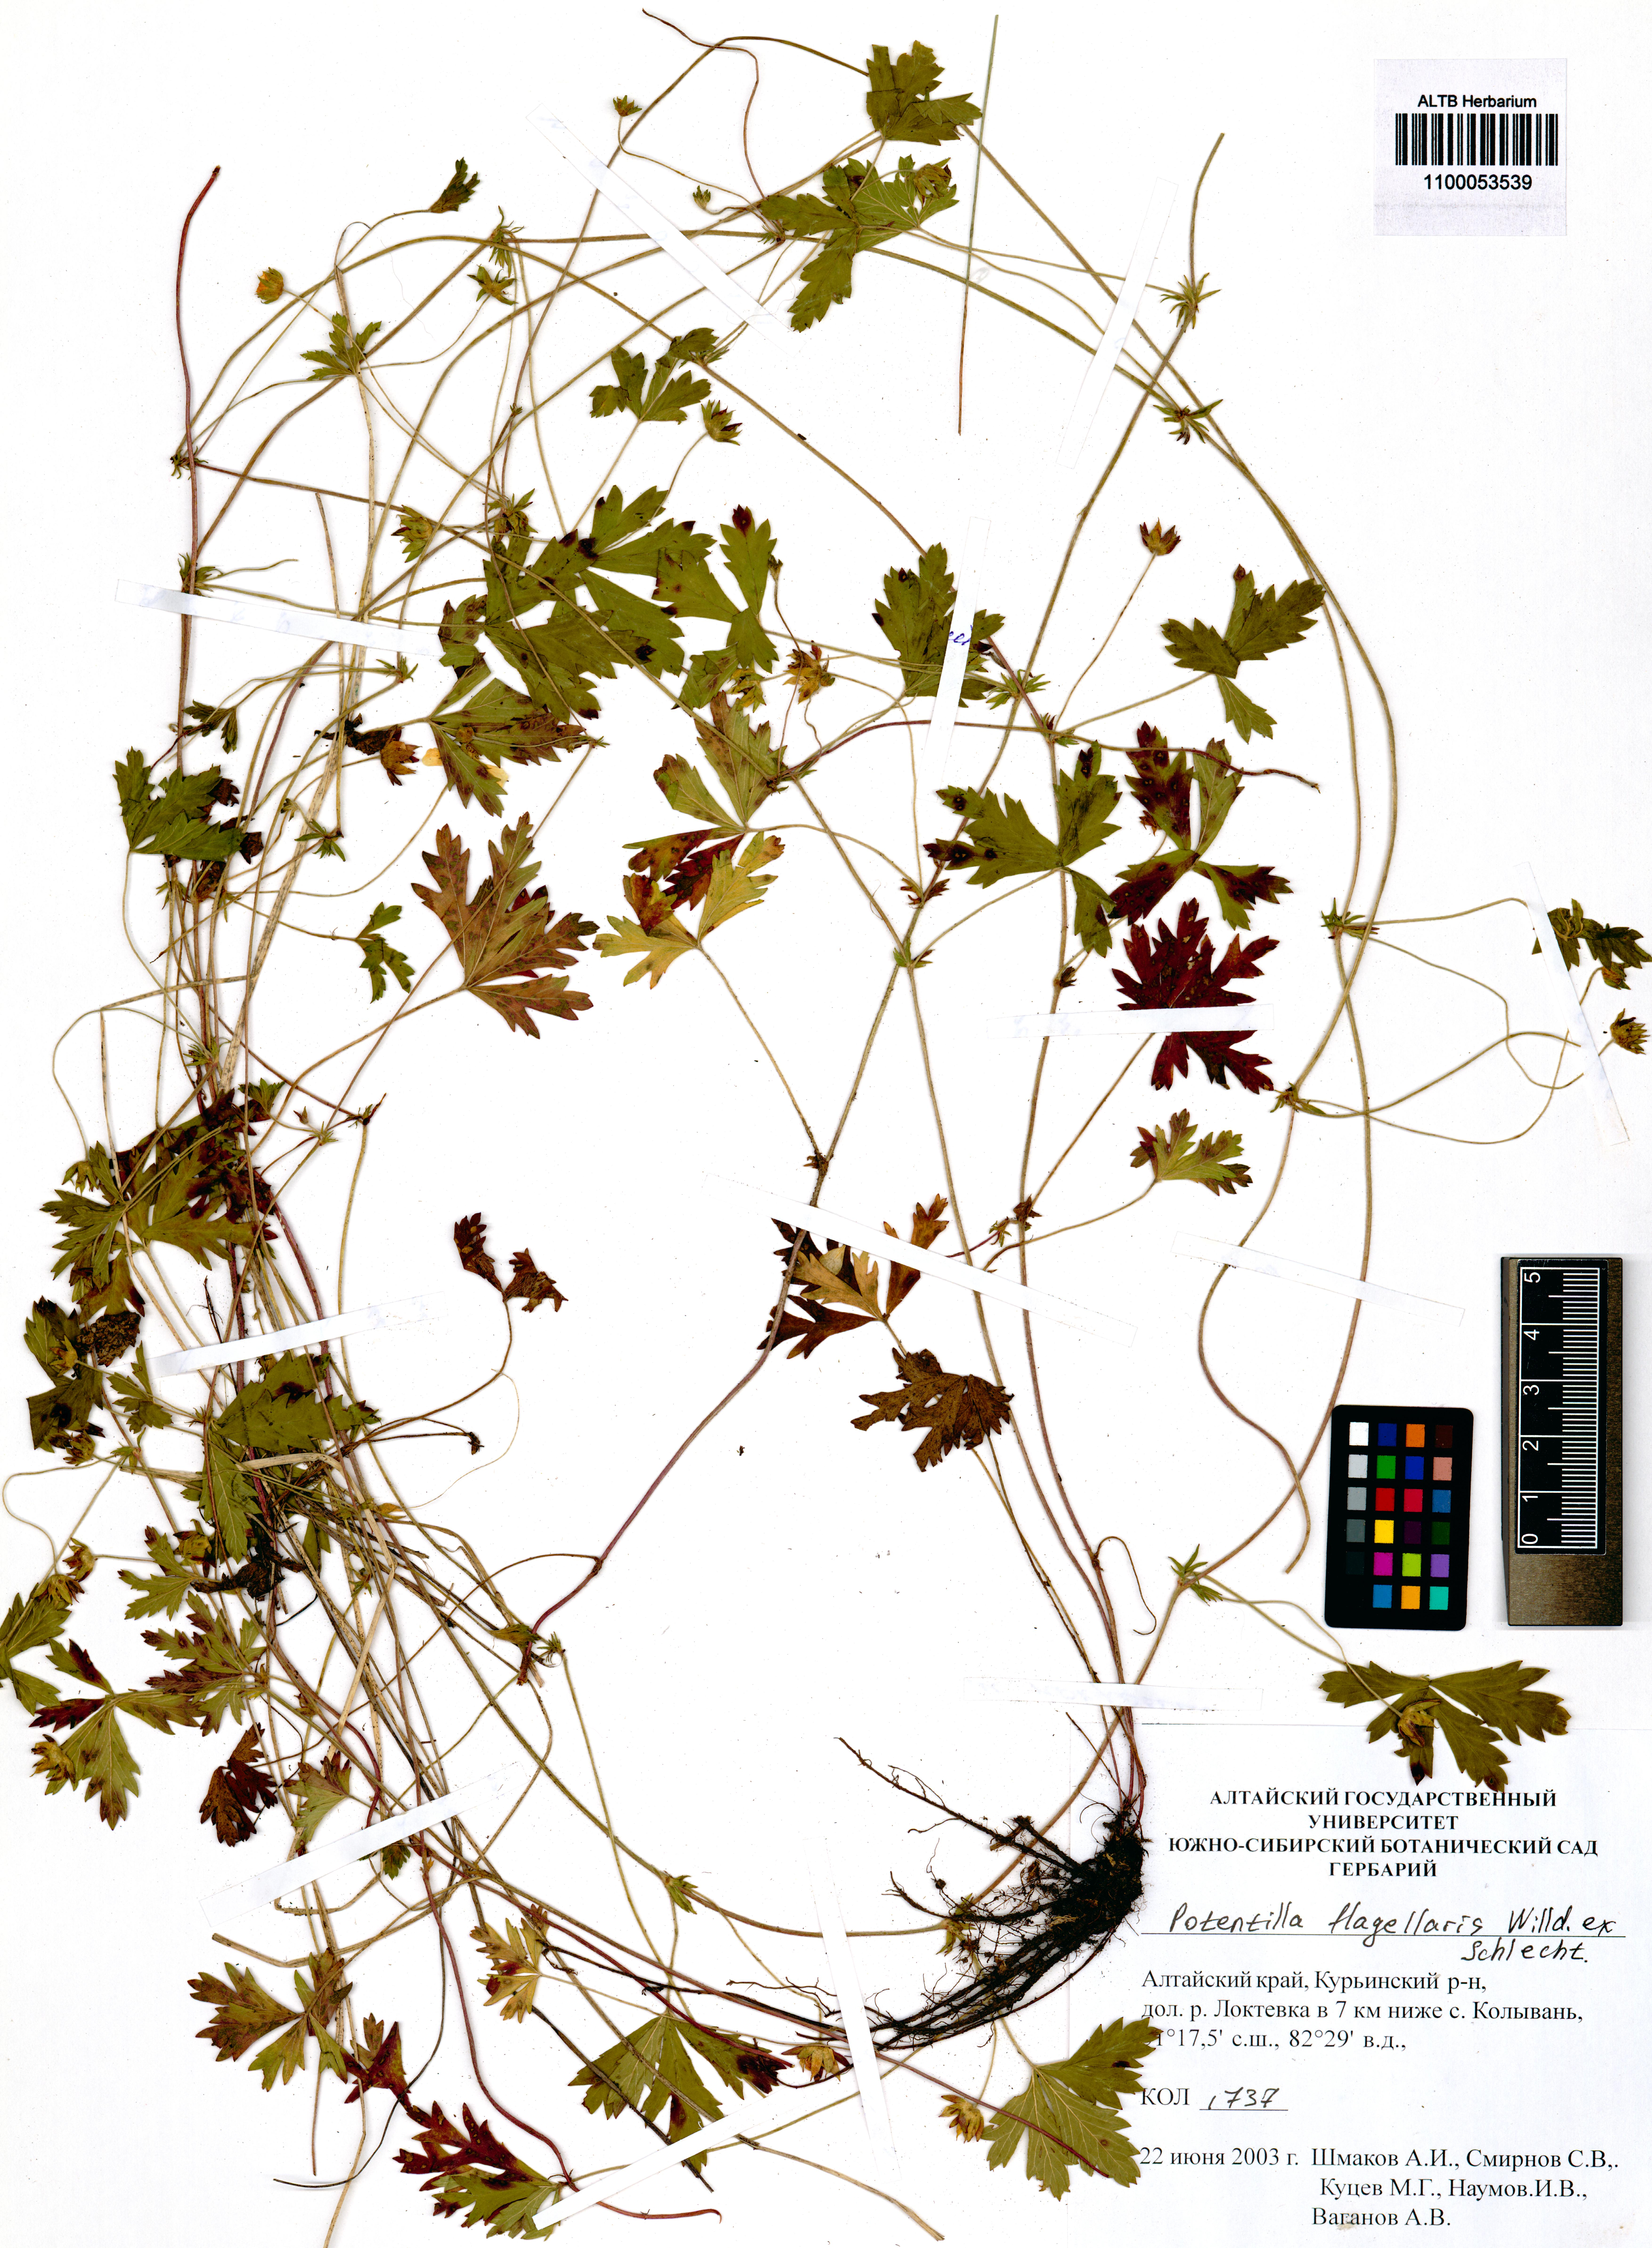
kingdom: Plantae
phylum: Tracheophyta
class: Magnoliopsida
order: Rosales
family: Rosaceae
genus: Potentilla
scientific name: Potentilla flagellaris
